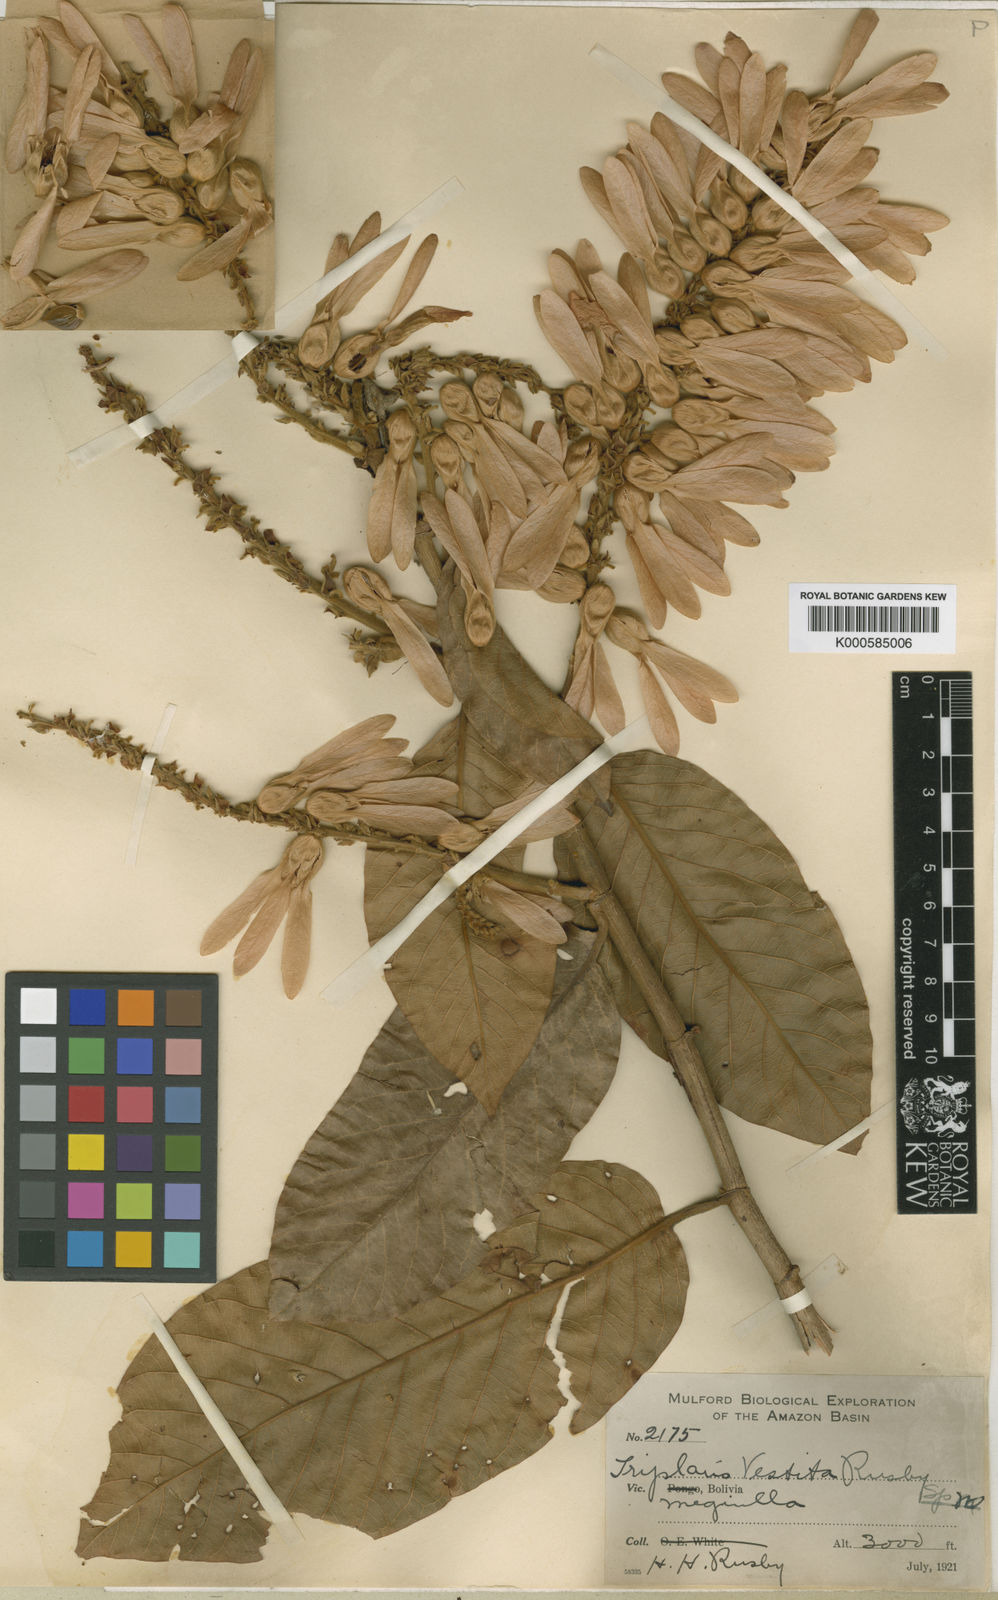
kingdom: Plantae
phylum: Tracheophyta
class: Magnoliopsida
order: Caryophyllales
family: Polygonaceae
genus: Triplaris
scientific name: Triplaris vestita
